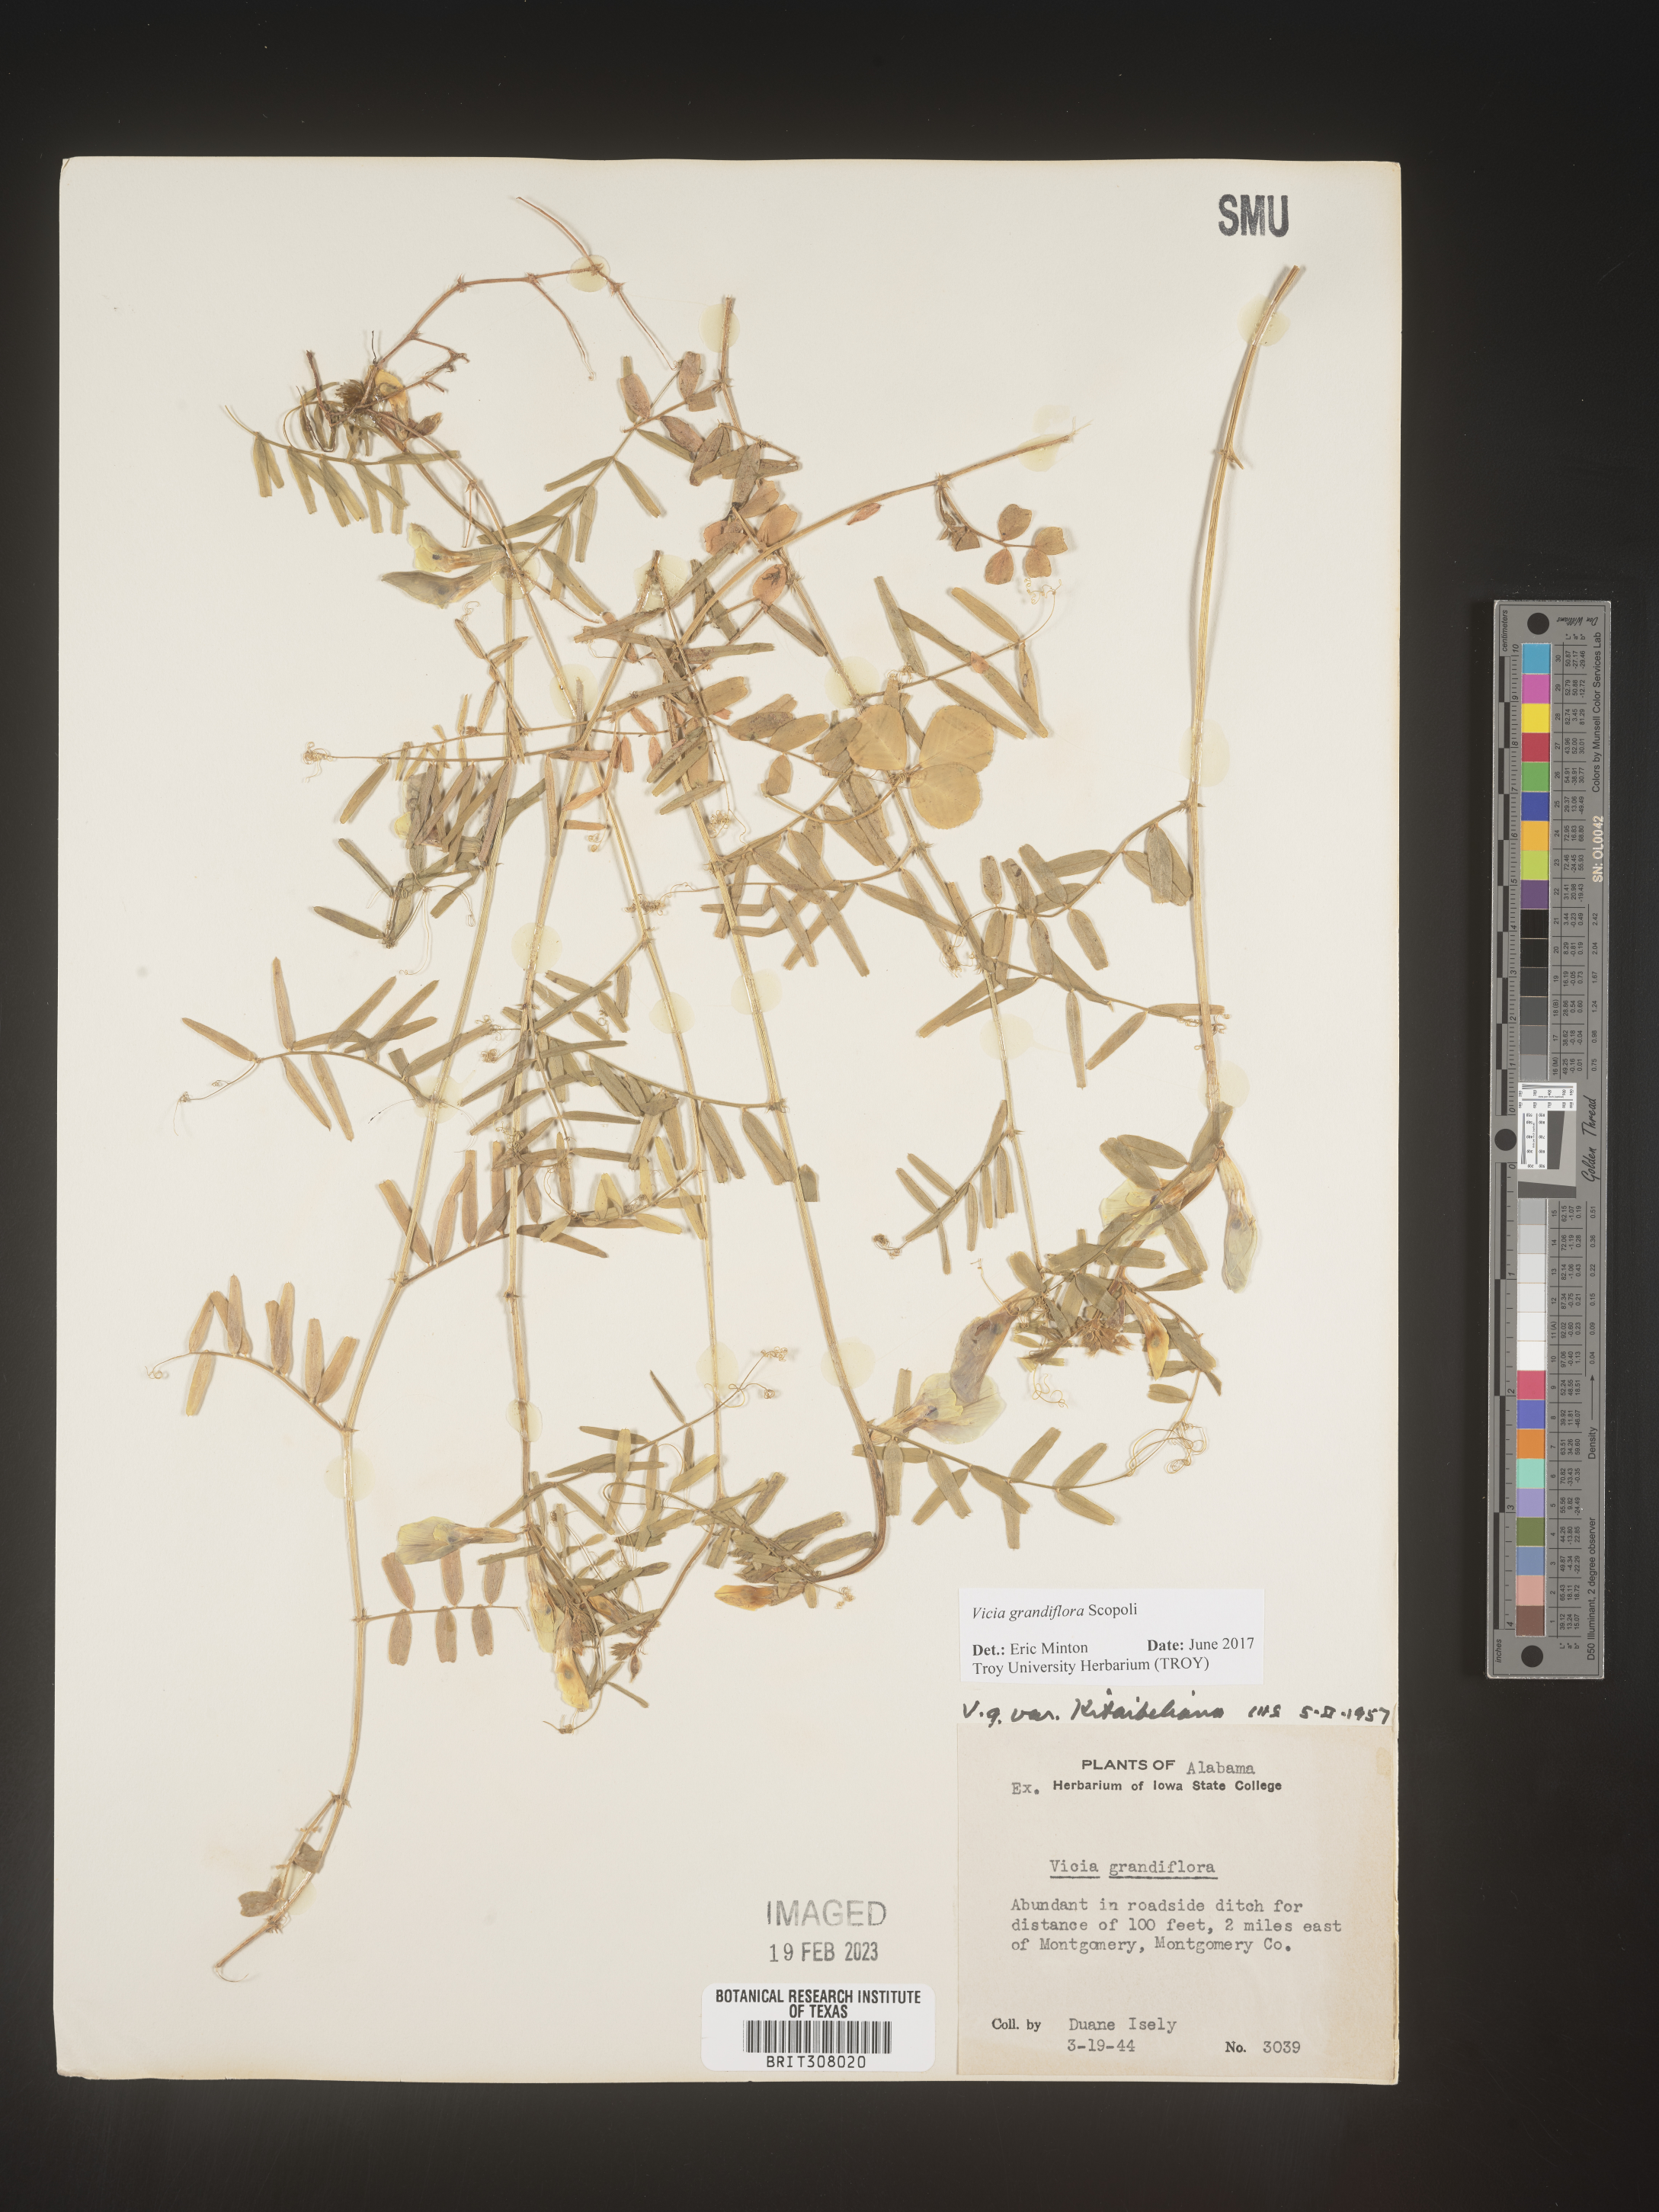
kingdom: Plantae
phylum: Tracheophyta
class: Magnoliopsida
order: Fabales
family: Fabaceae
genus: Vicia
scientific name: Vicia grandiflora
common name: Large yellow vetch
